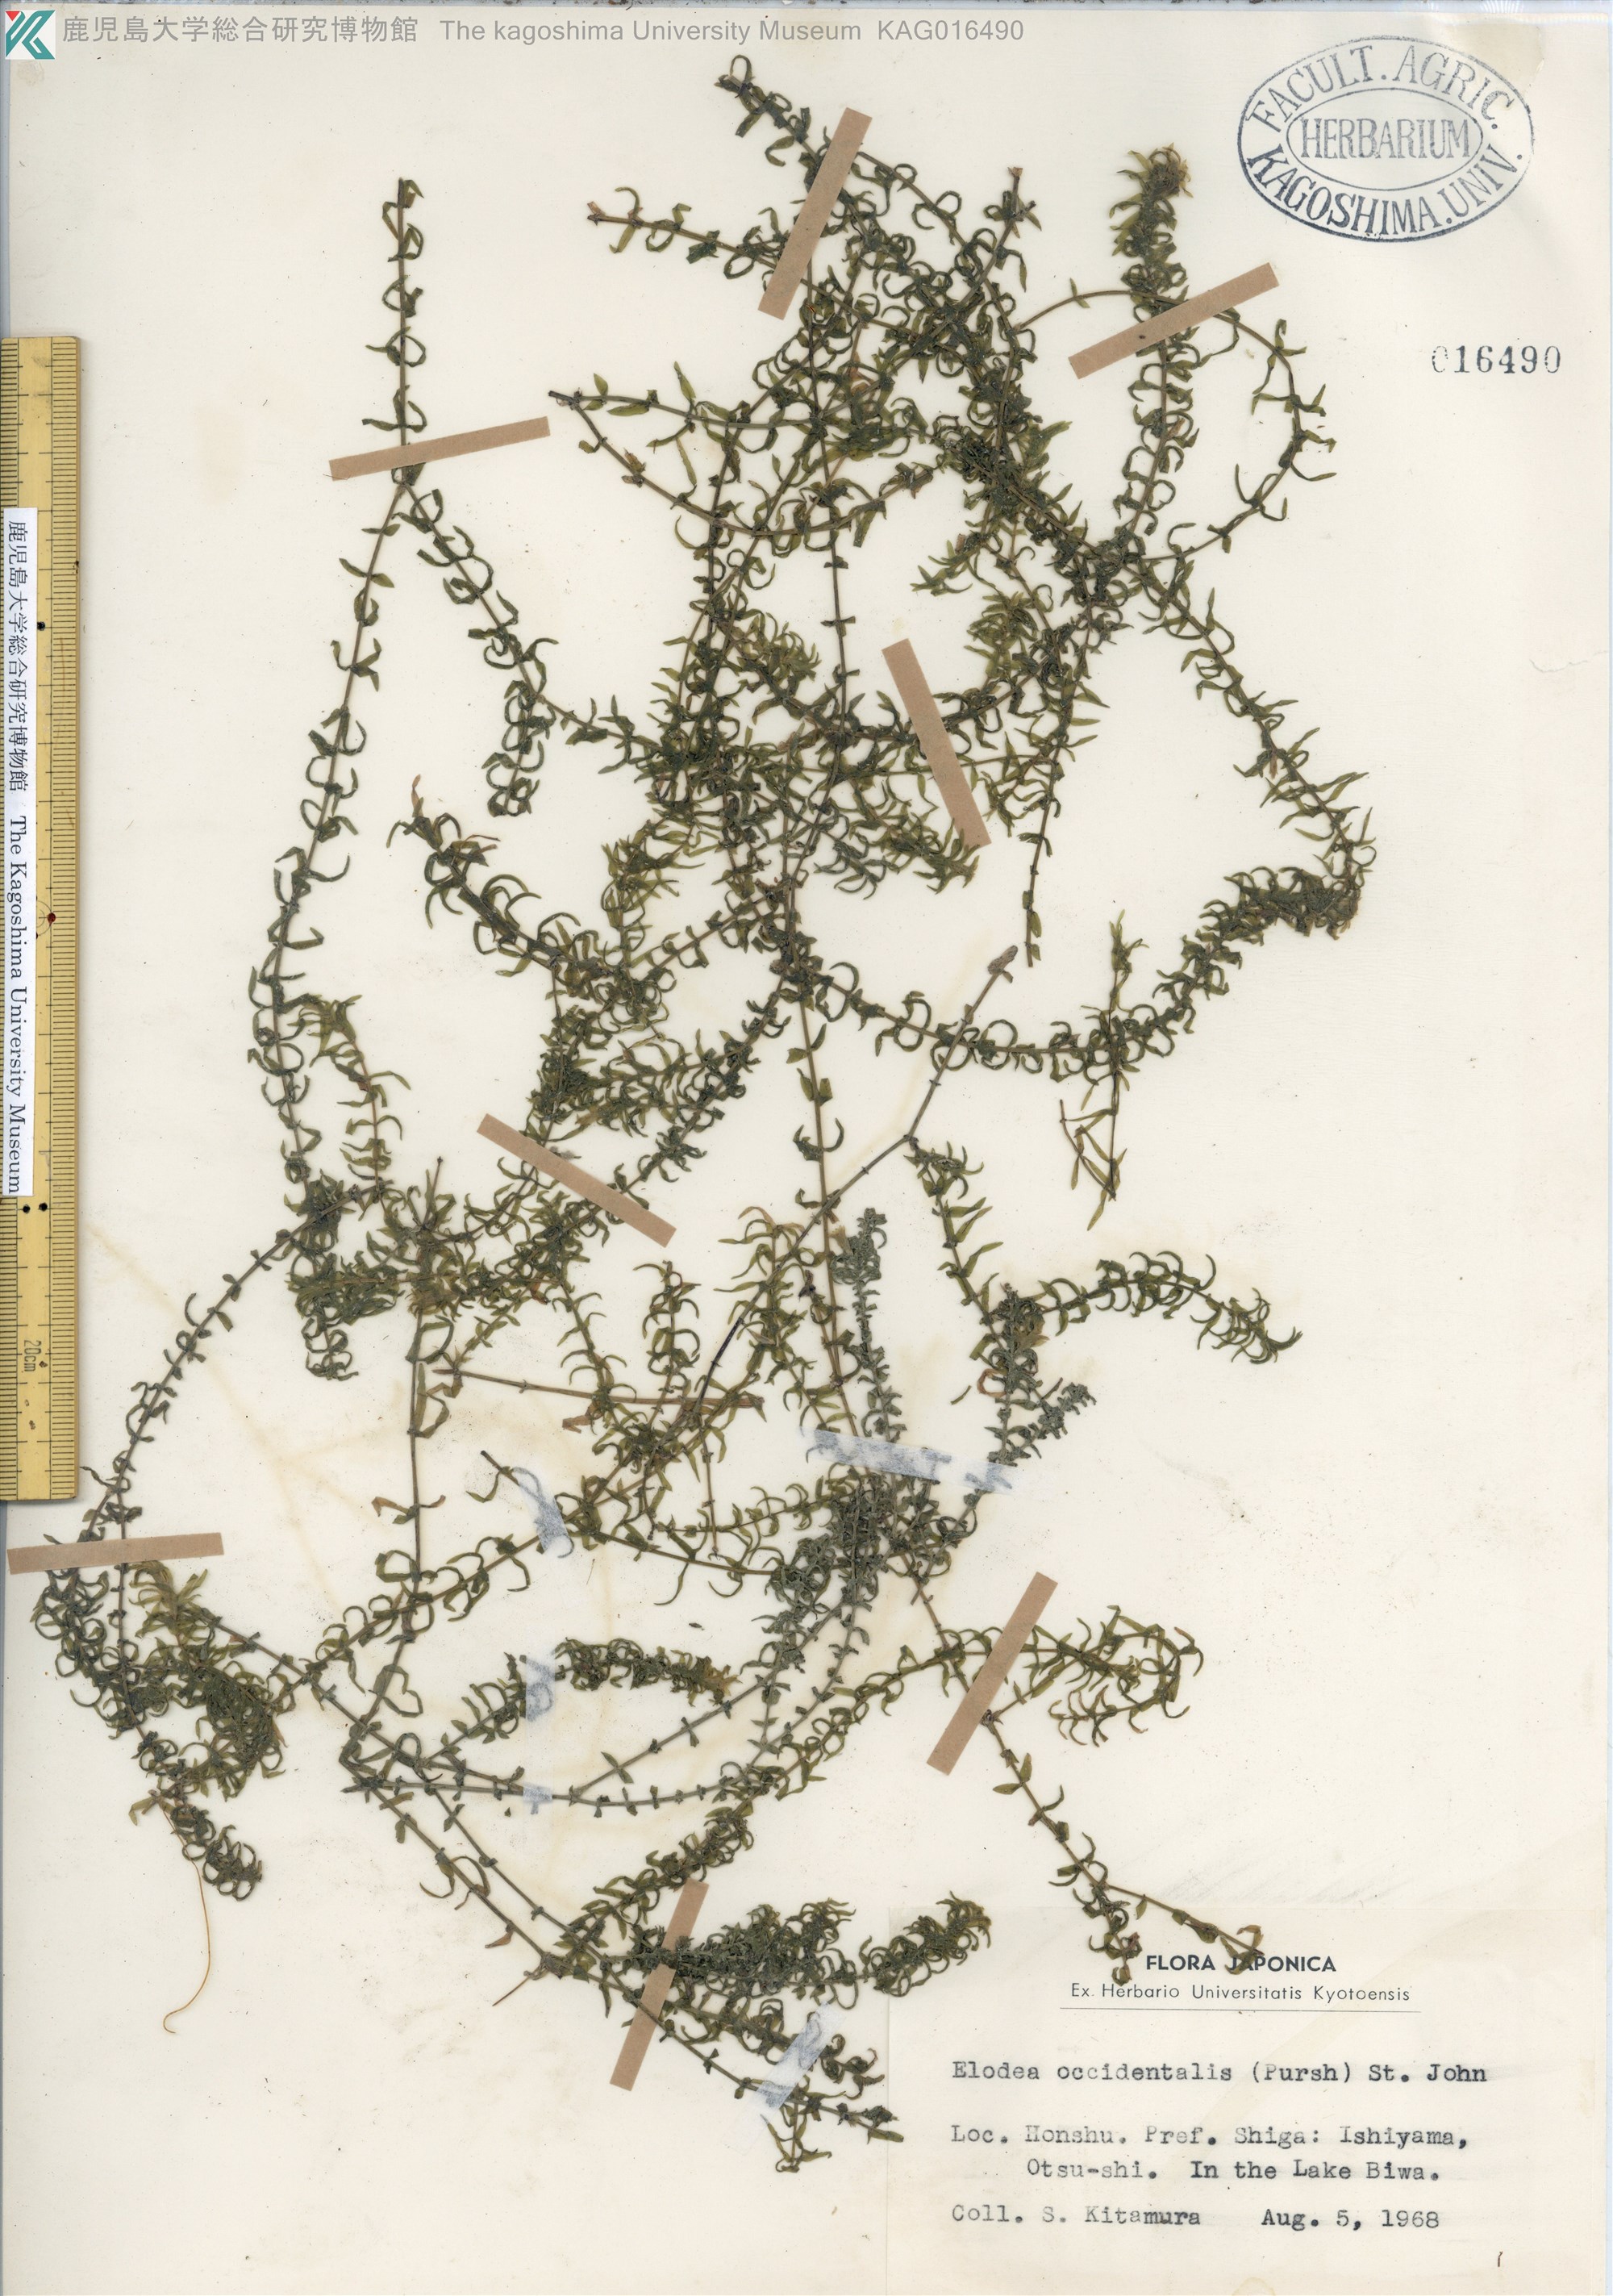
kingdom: Plantae
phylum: Tracheophyta
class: Liliopsida
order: Alismatales
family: Hydrocharitaceae
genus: Elodea
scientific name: Elodea
